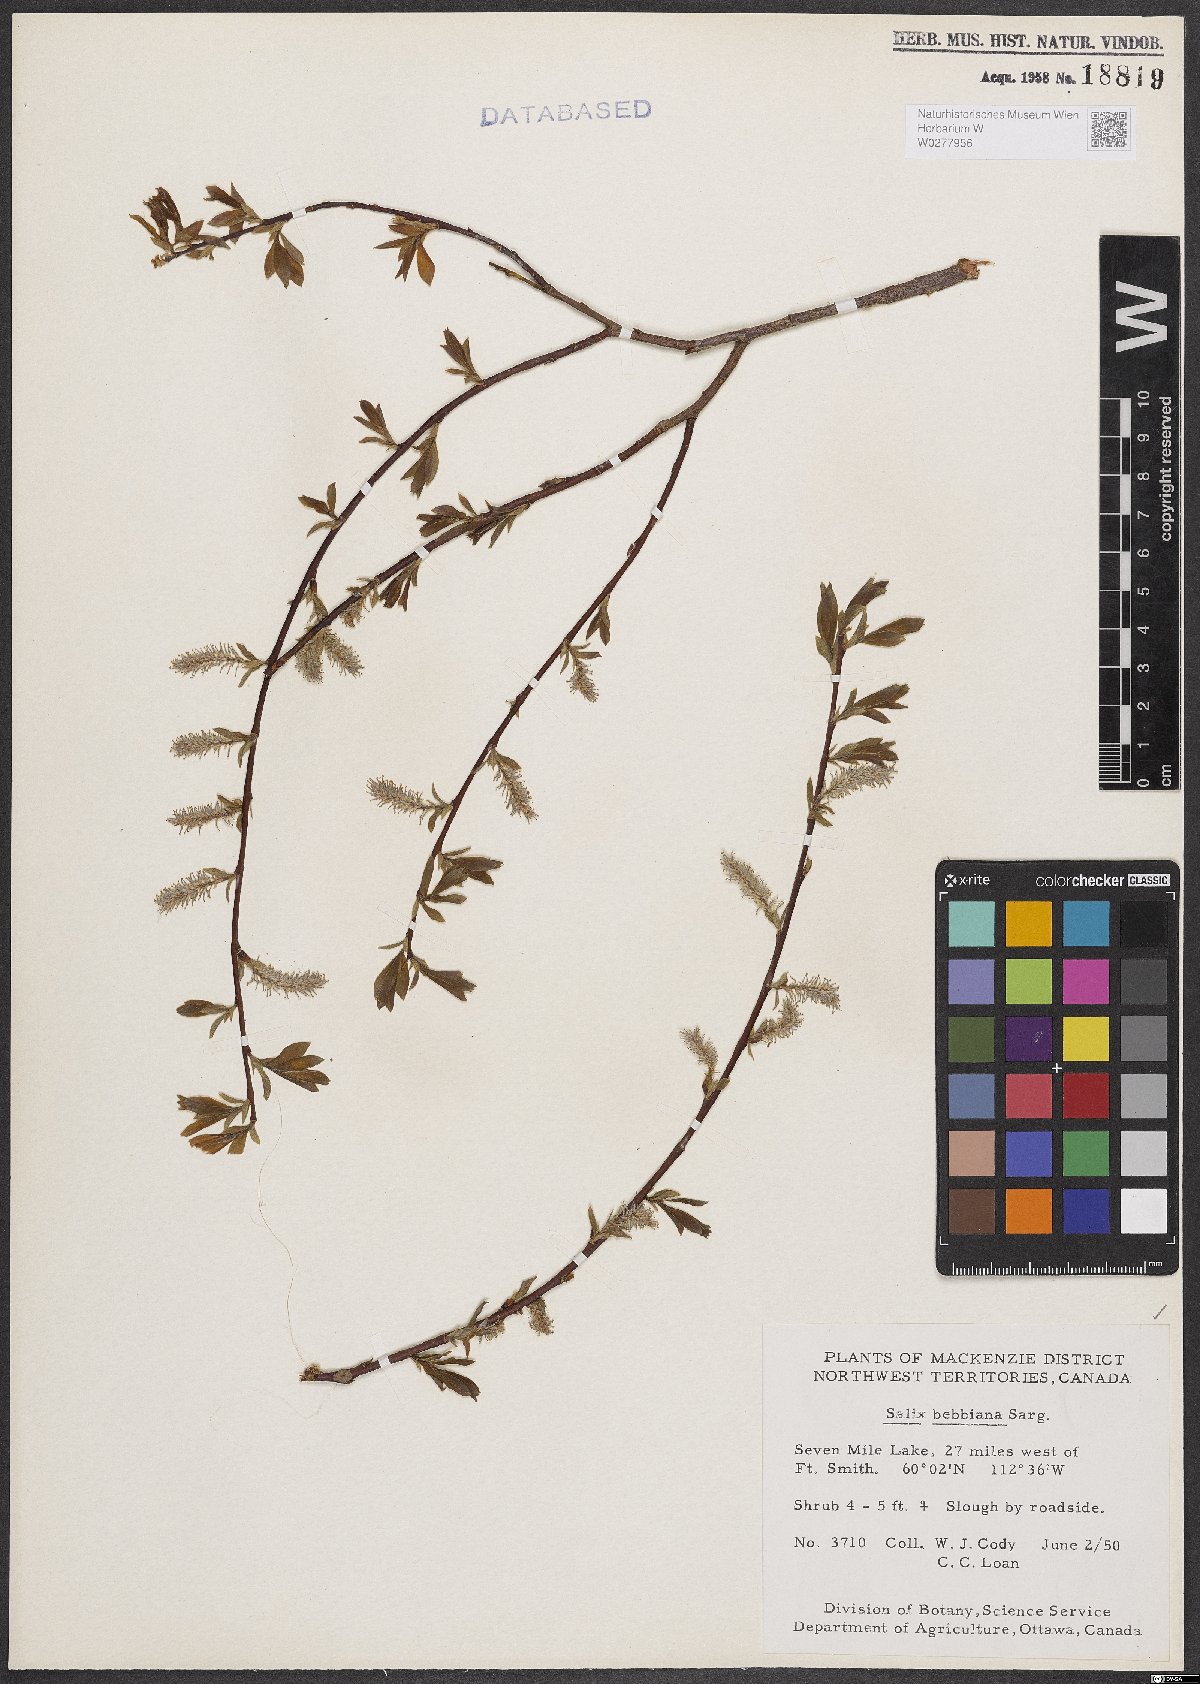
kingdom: Plantae
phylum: Tracheophyta
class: Magnoliopsida
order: Malpighiales
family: Salicaceae
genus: Salix
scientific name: Salix bebbiana
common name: Bebb's willow
